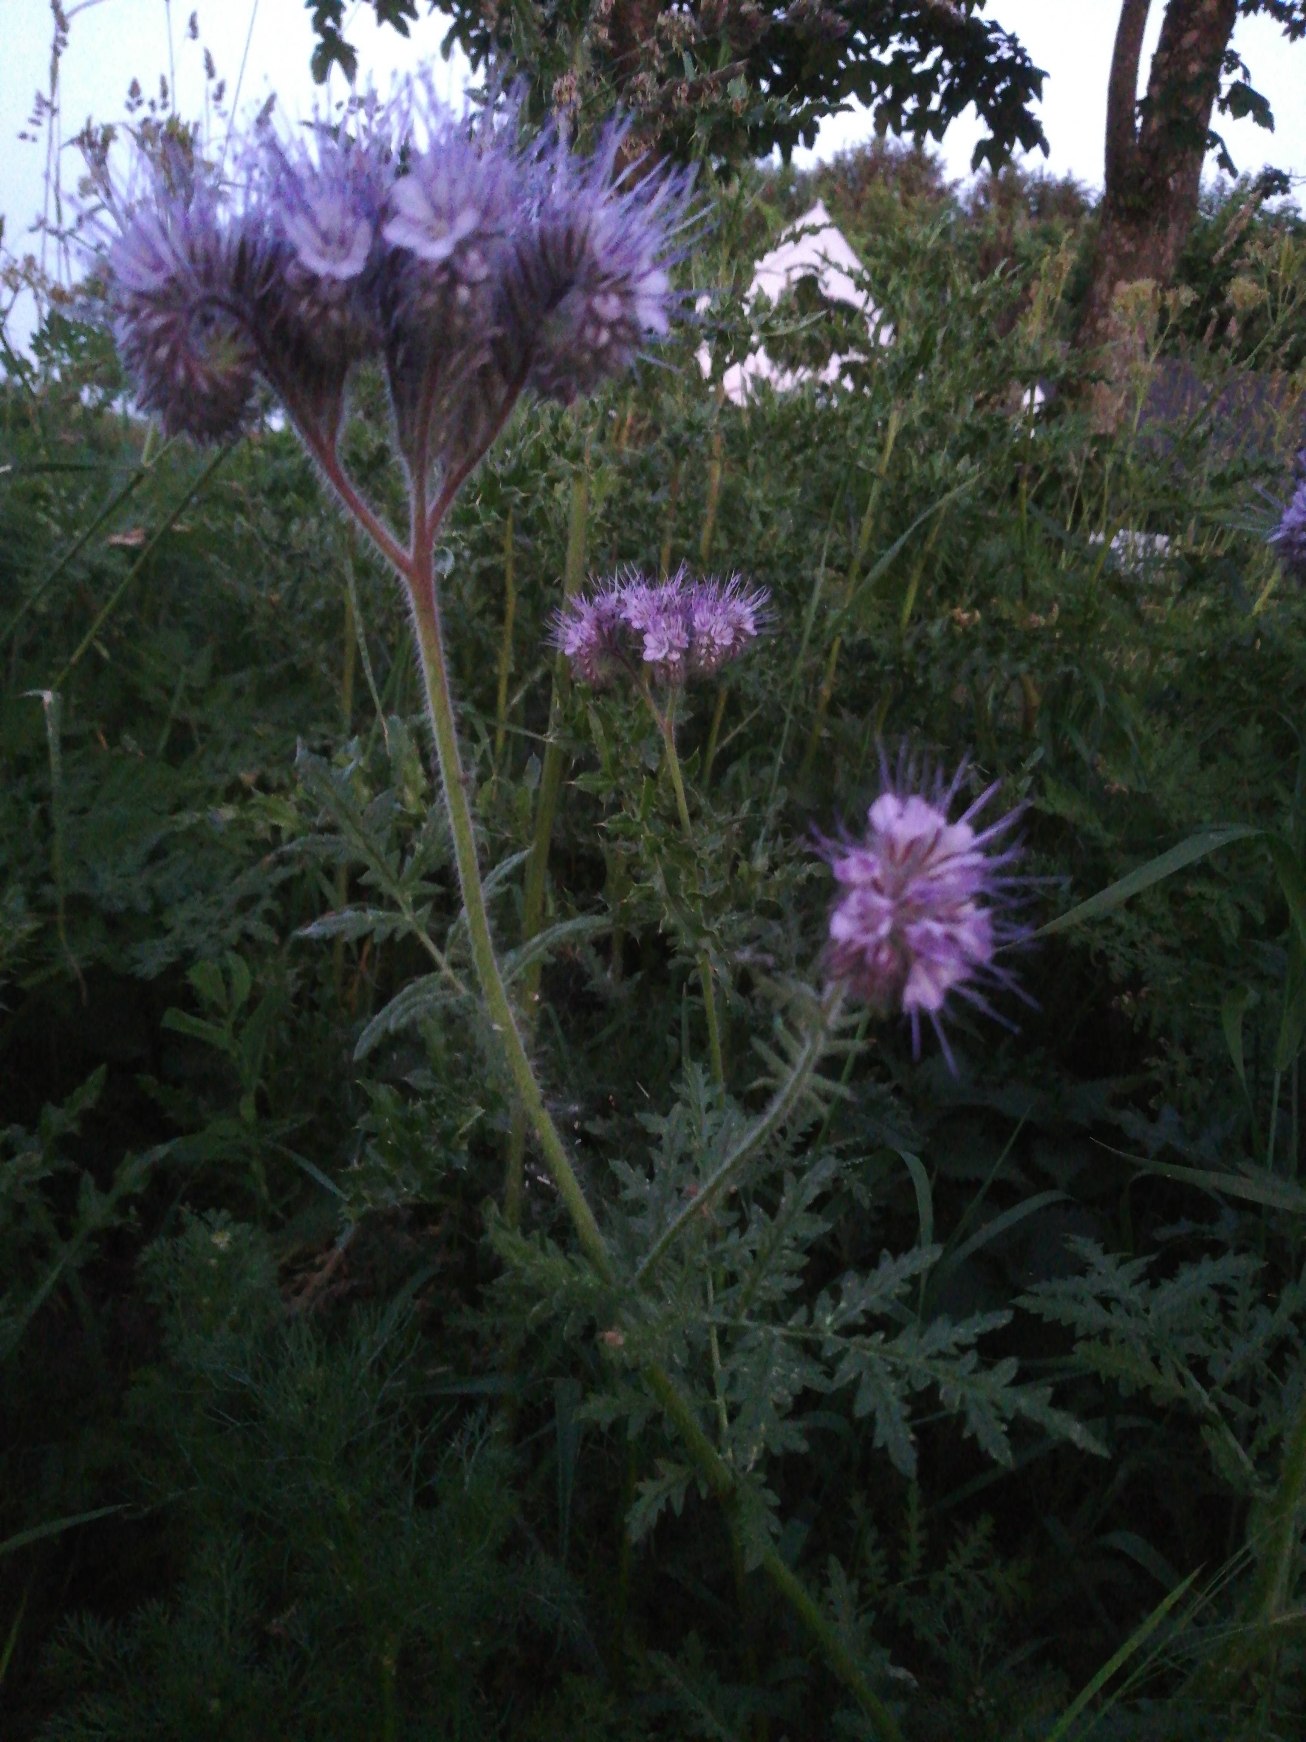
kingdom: Plantae
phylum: Tracheophyta
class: Magnoliopsida
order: Boraginales
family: Hydrophyllaceae
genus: Phacelia
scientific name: Phacelia tanacetifolia
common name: Honningurt
